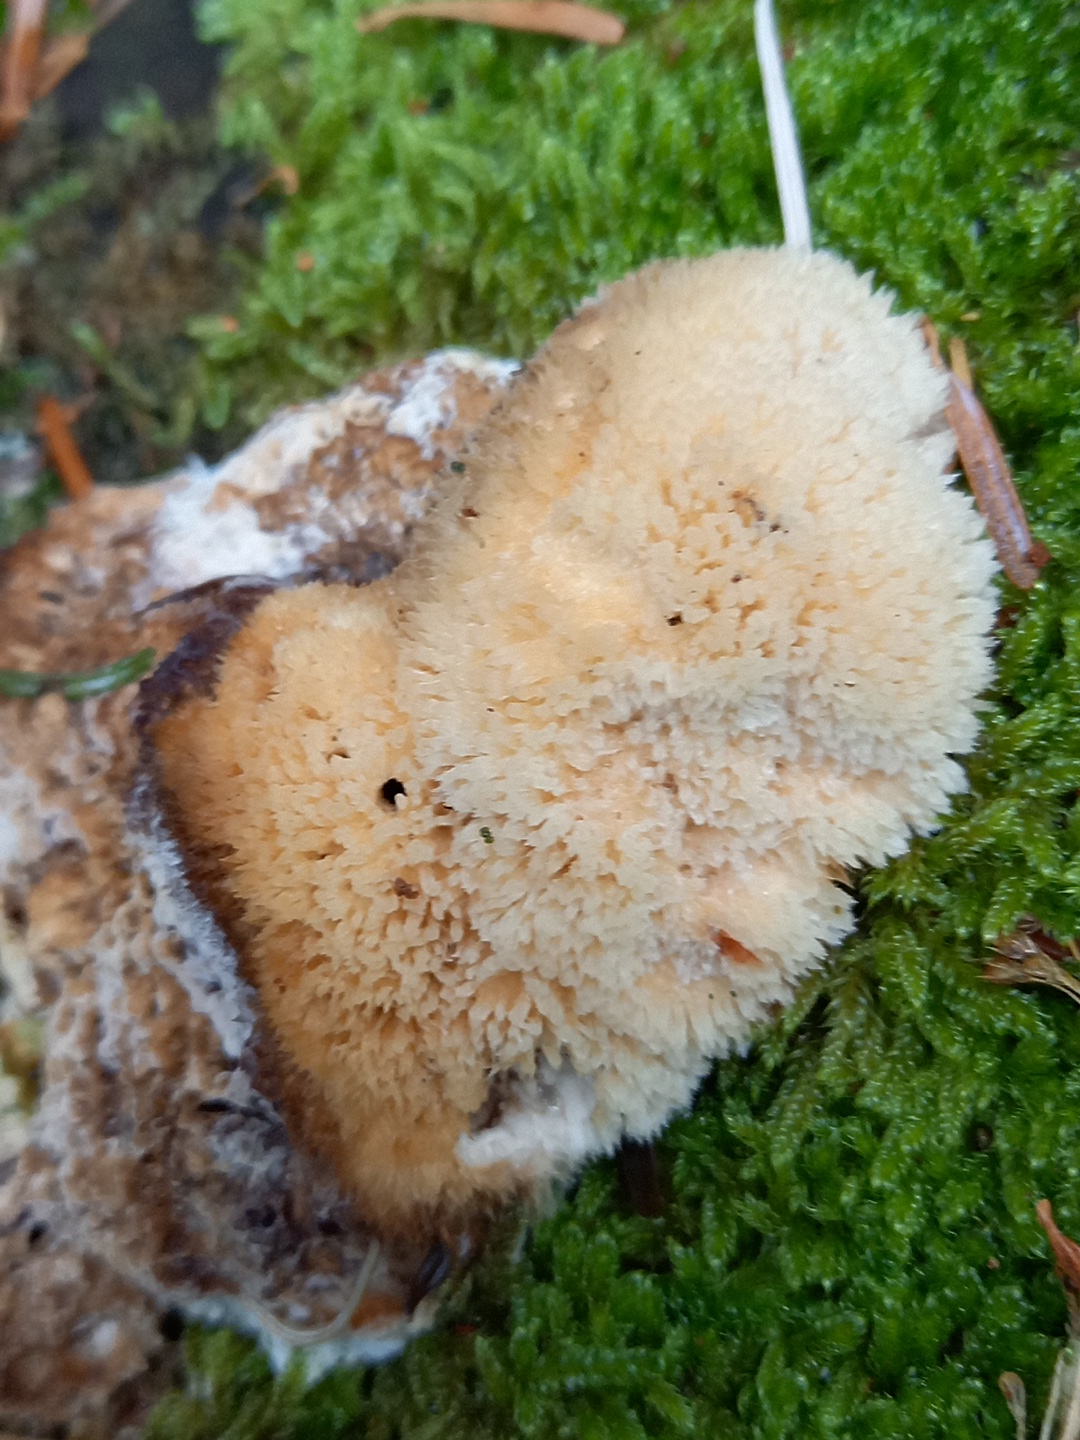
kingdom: Fungi
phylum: Basidiomycota
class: Agaricomycetes
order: Polyporales
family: Dacryobolaceae
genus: Postia
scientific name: Postia ptychogaster
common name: støvende kødporesvamp
